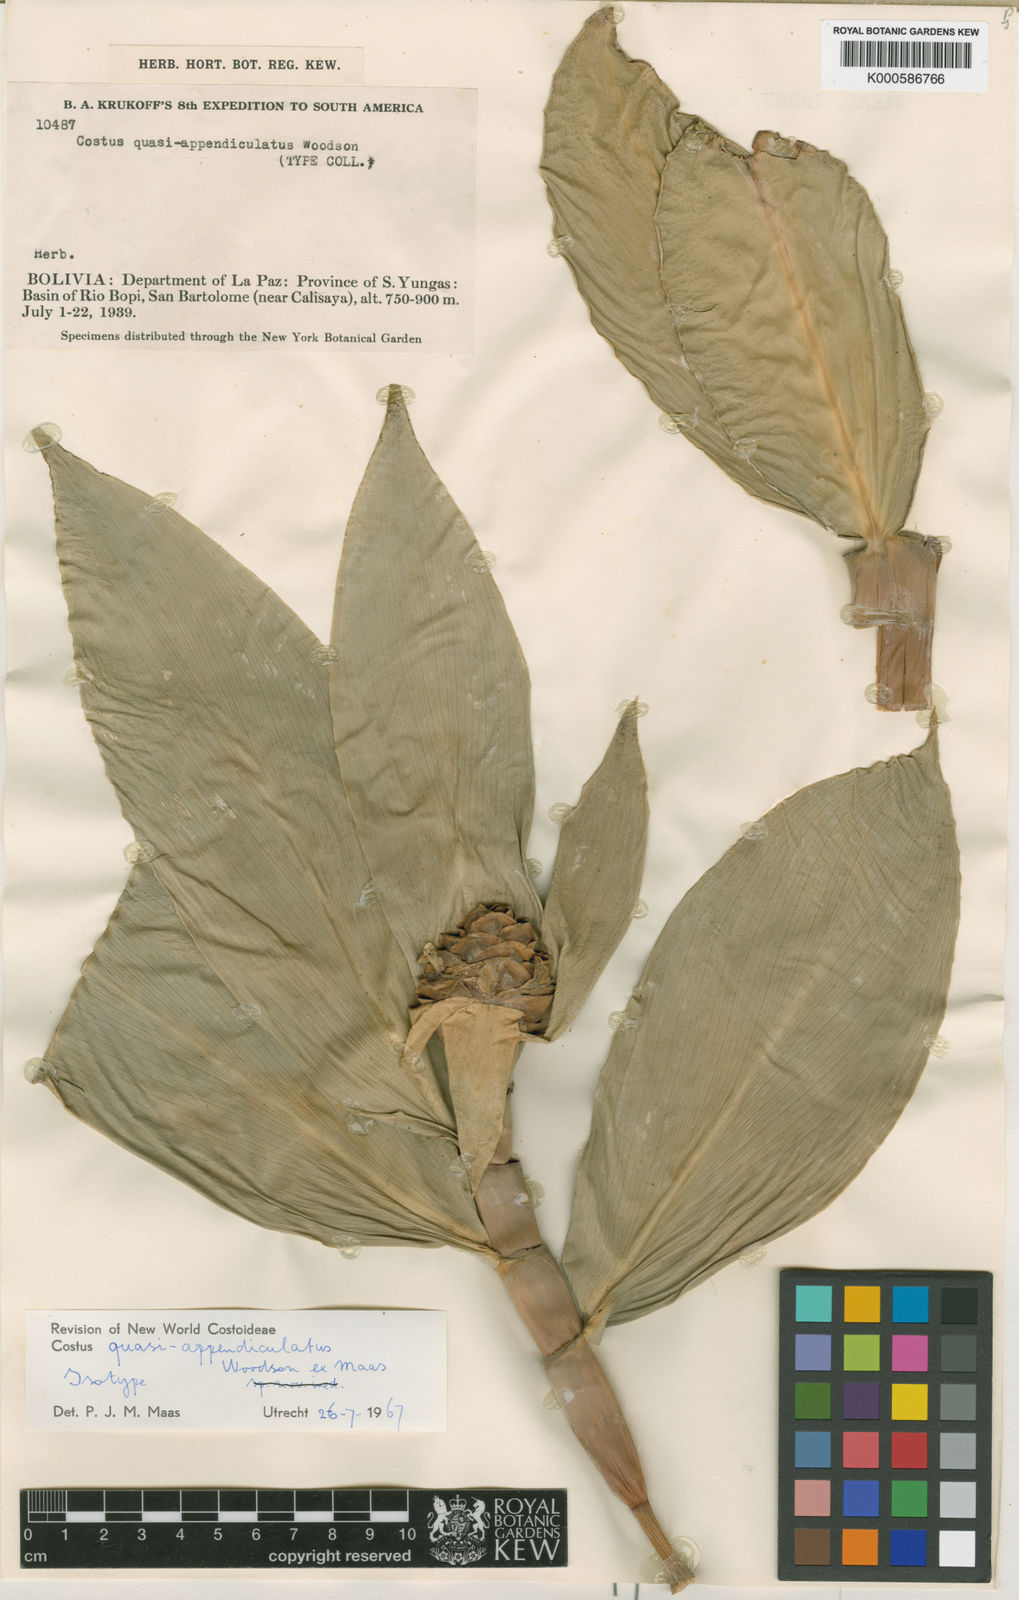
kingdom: Plantae
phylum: Tracheophyta
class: Liliopsida
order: Zingiberales
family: Costaceae
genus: Costus
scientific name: Costus quasi-appendiculatus
